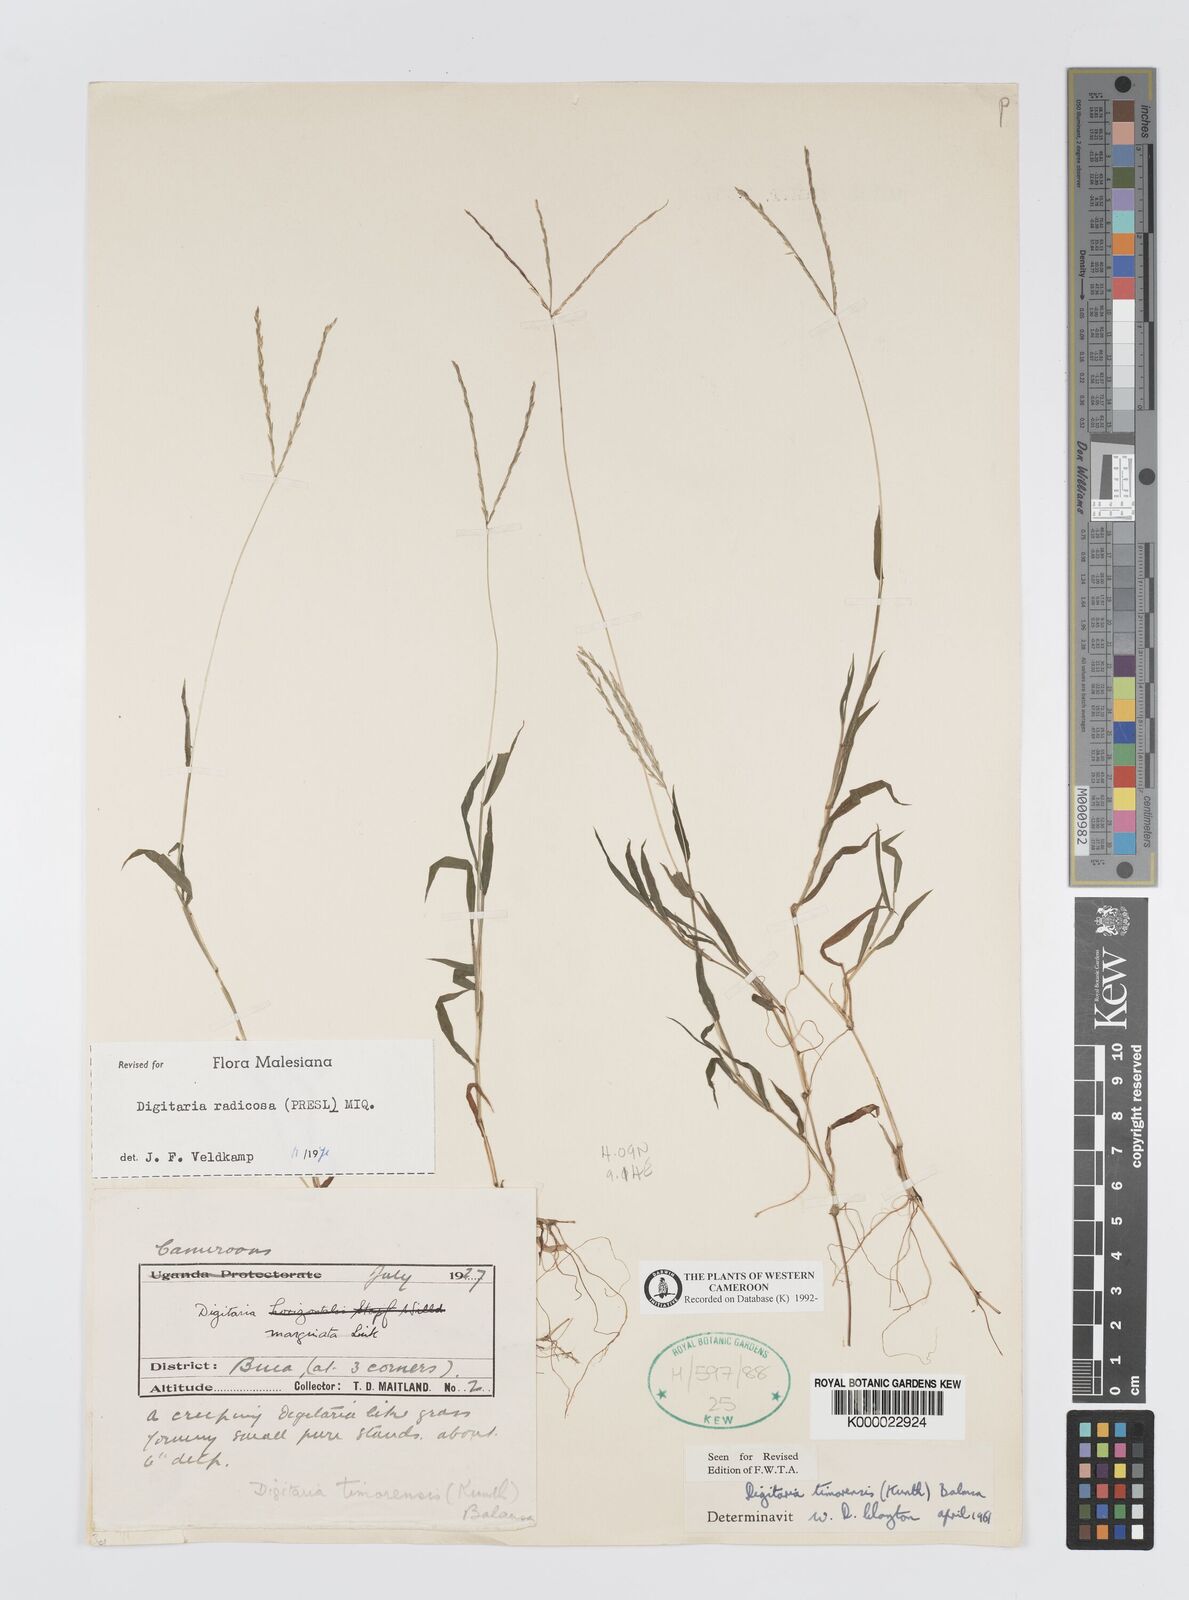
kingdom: Plantae
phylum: Tracheophyta
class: Liliopsida
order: Poales
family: Poaceae
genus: Digitaria
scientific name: Digitaria radicosa
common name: Trailing crabgrass
